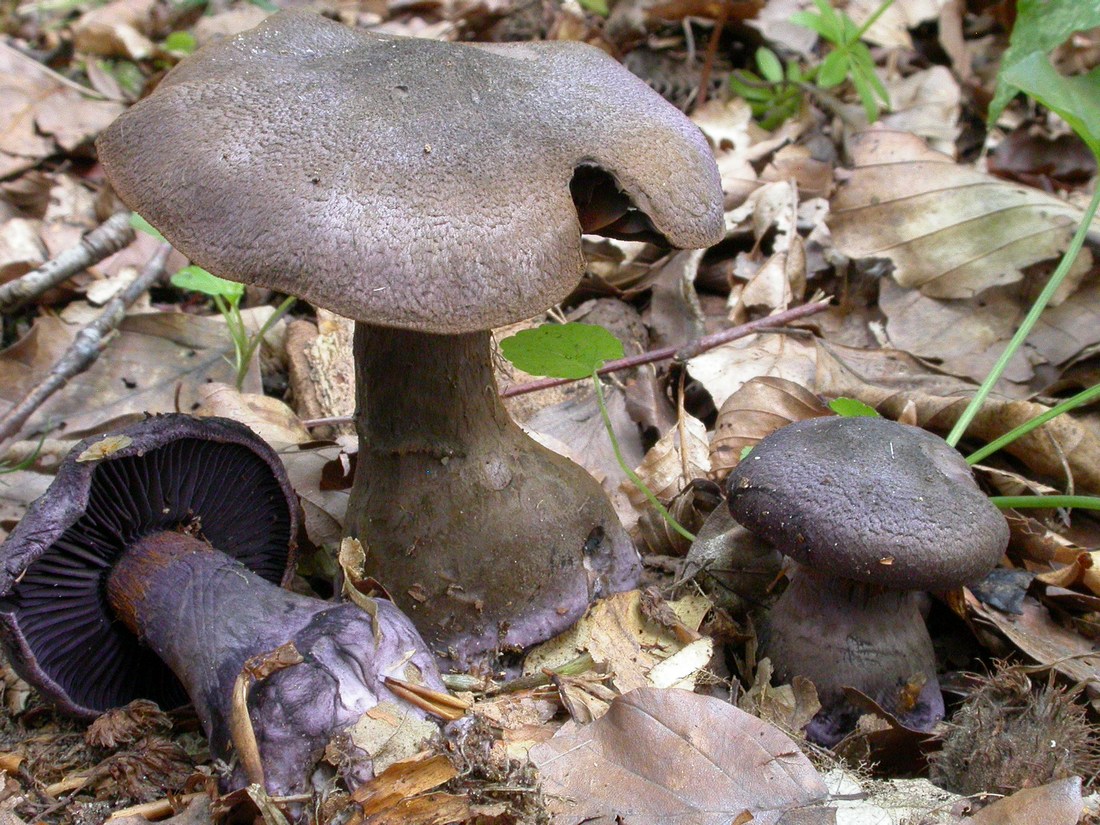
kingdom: Fungi
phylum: Basidiomycota
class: Agaricomycetes
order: Agaricales
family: Cortinariaceae
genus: Cortinarius
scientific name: Cortinarius violaceus
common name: mørkviolet slørhat
